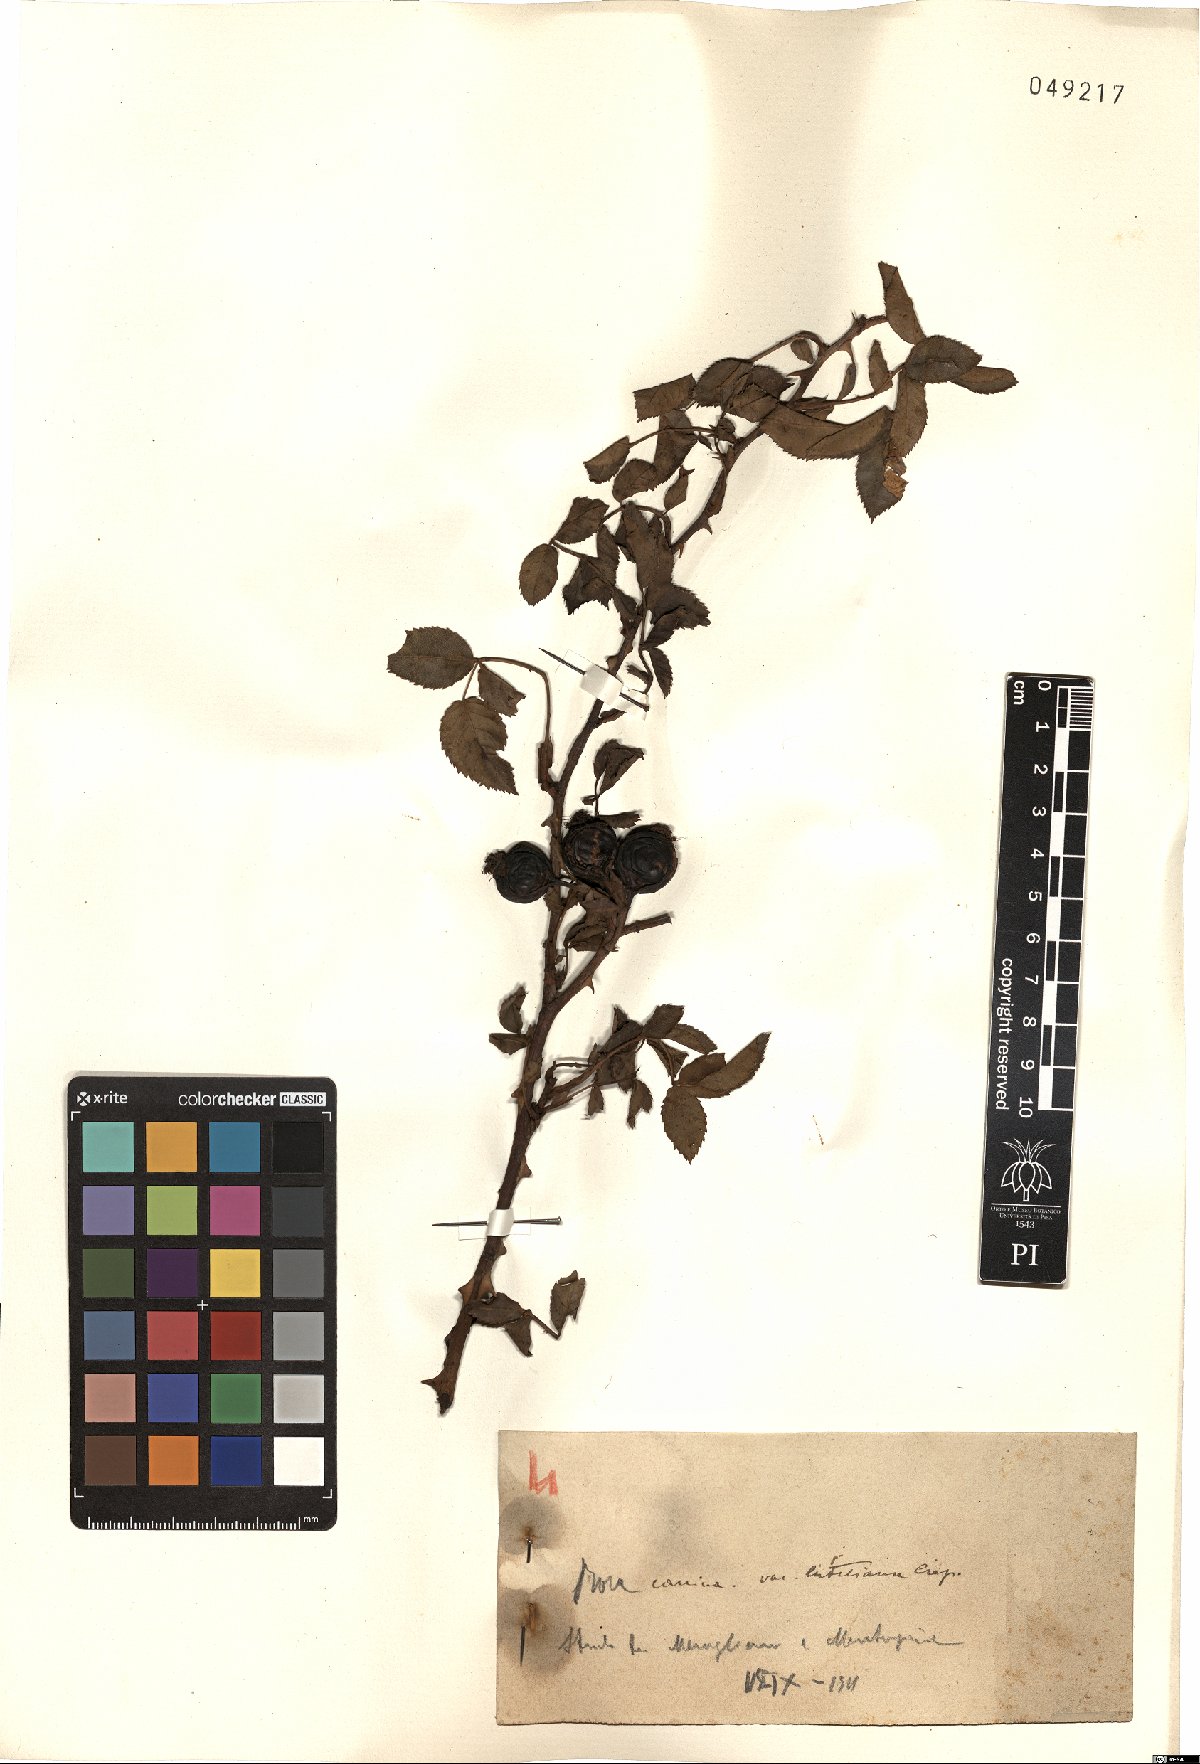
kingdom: Plantae
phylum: Tracheophyta
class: Magnoliopsida
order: Rosales
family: Rosaceae
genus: Rosa
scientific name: Rosa canina
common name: Dog rose
